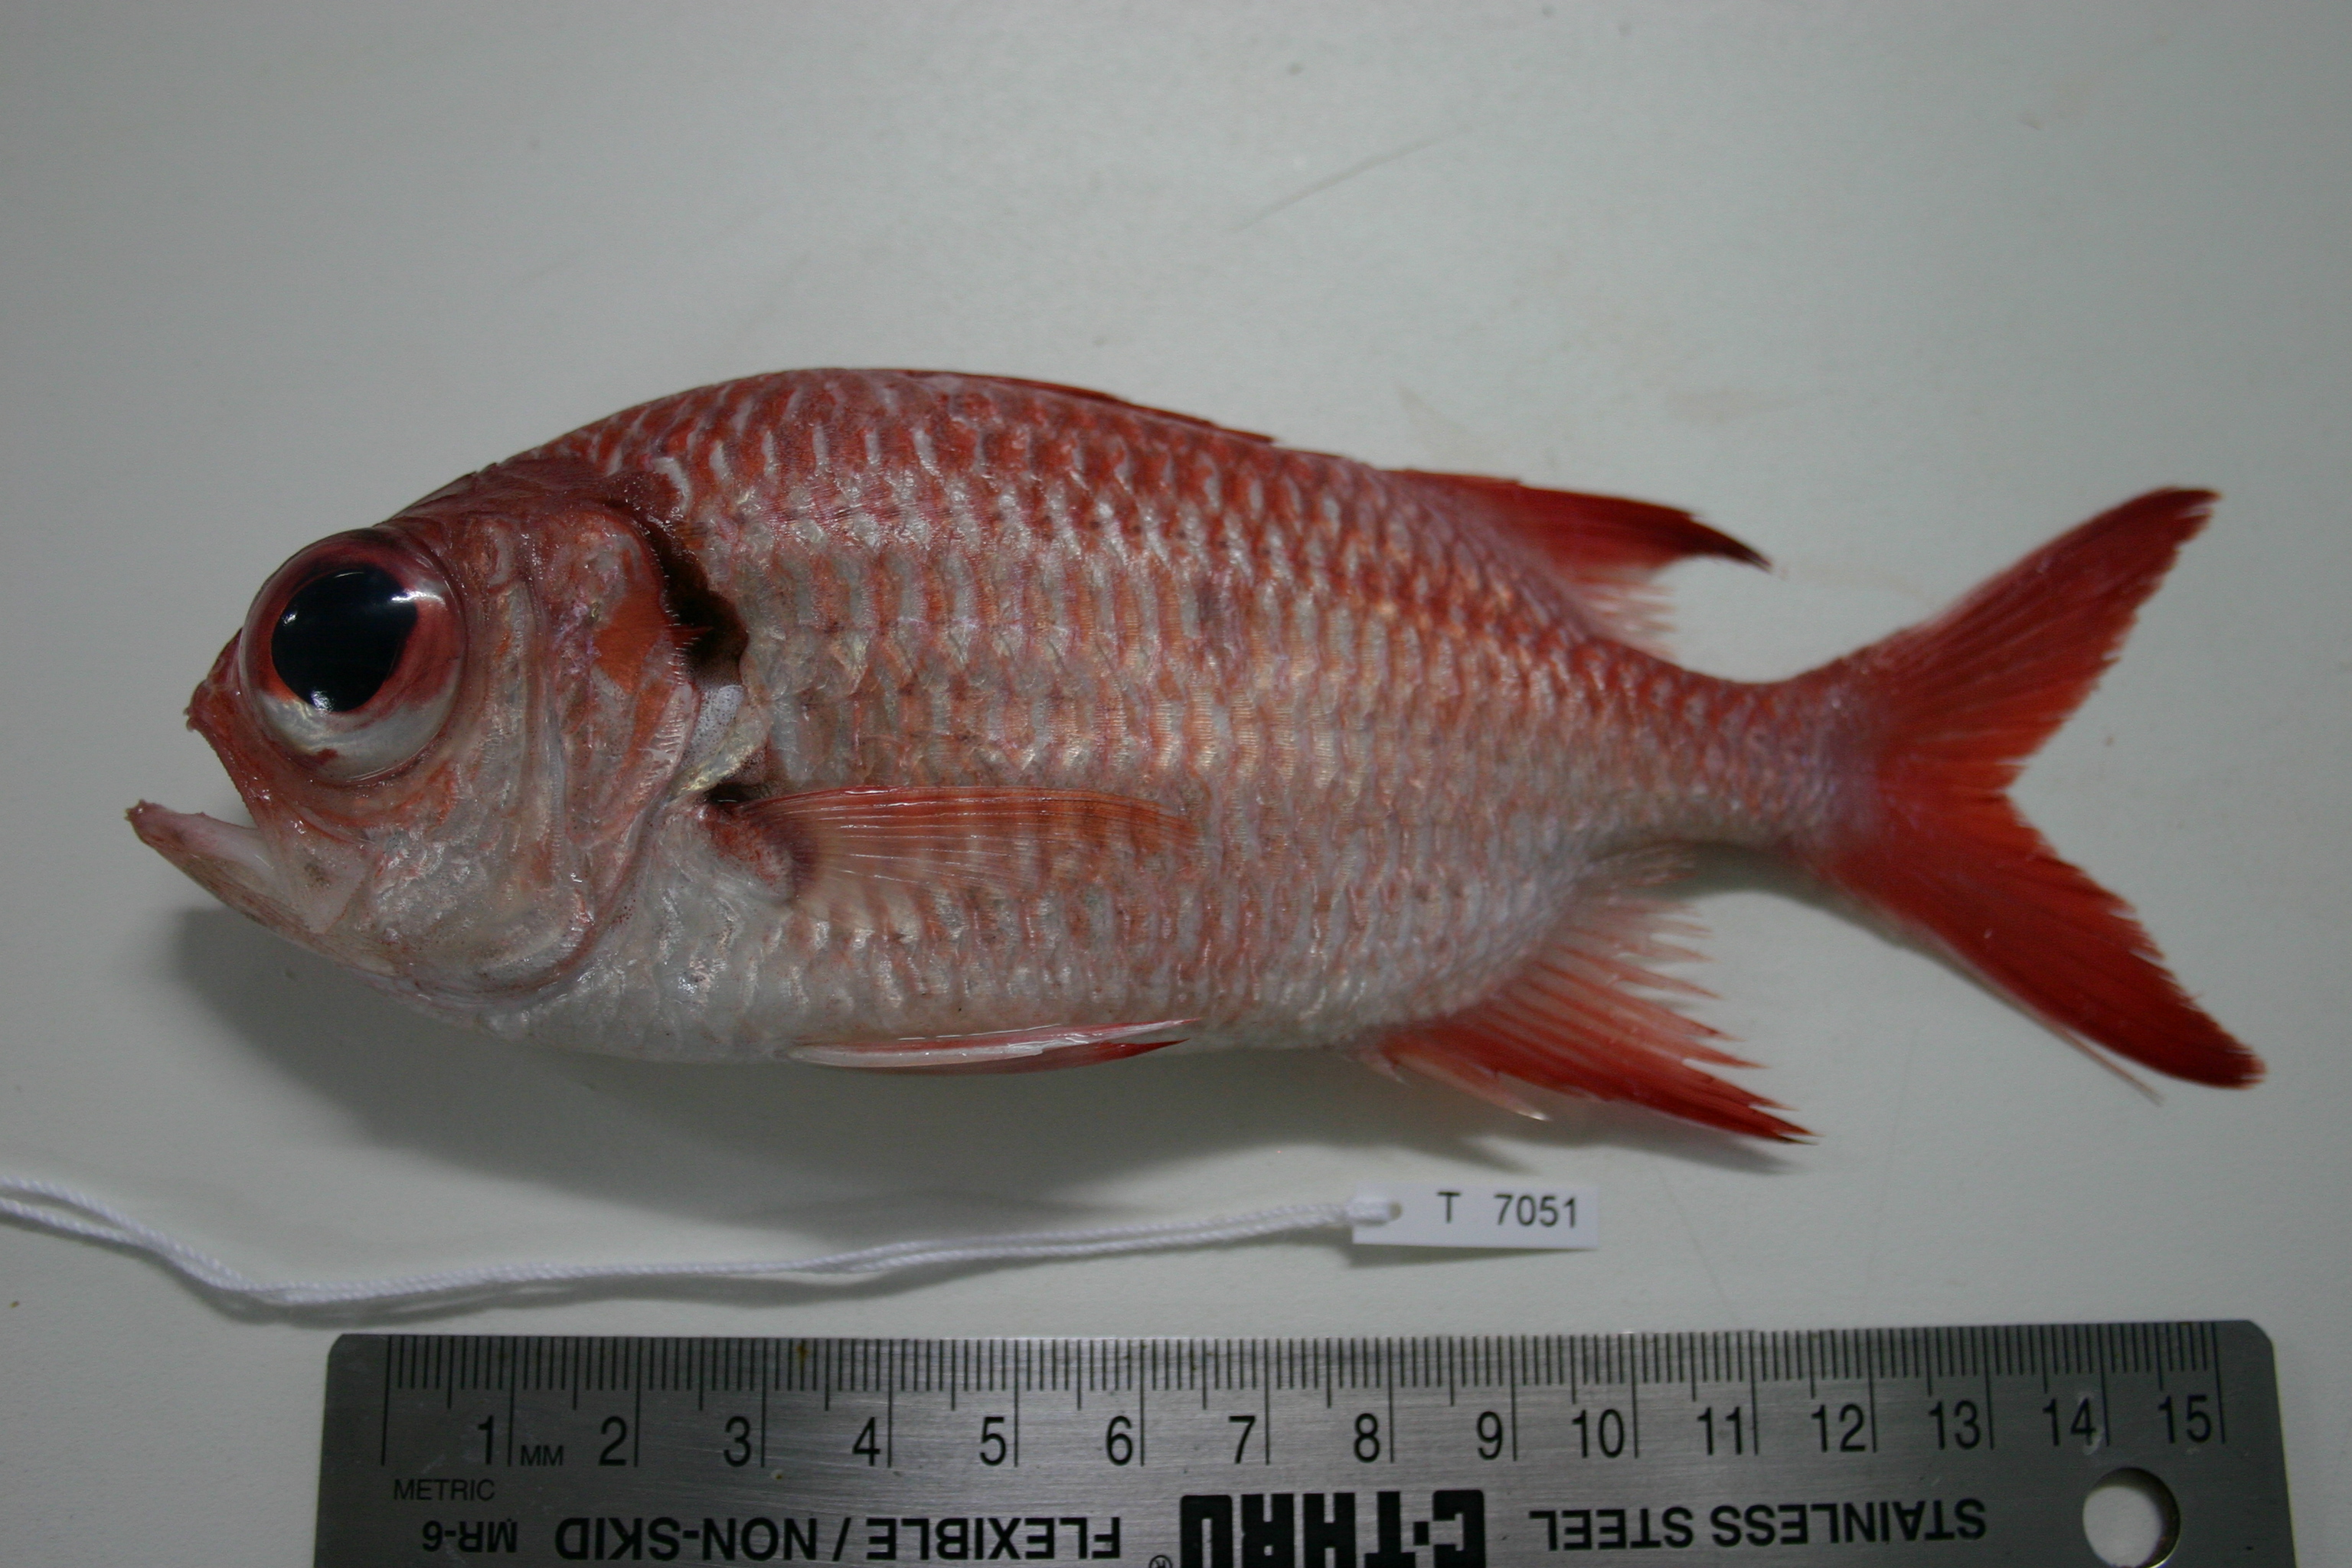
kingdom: Animalia
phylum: Chordata
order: Beryciformes
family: Holocentridae
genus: Myripristis
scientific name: Myripristis pralinia
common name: Big eye soldierfish
